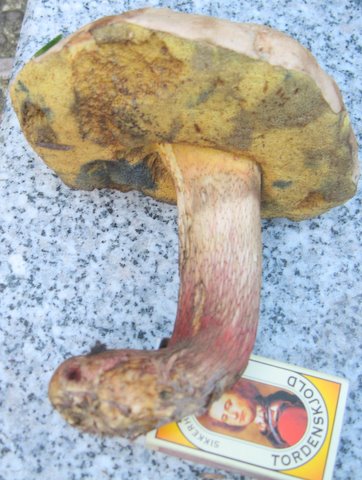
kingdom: Fungi
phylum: Basidiomycota
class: Agaricomycetes
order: Boletales
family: Boletaceae
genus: Caloboletus
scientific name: Caloboletus calopus
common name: skønfodet rørhat
